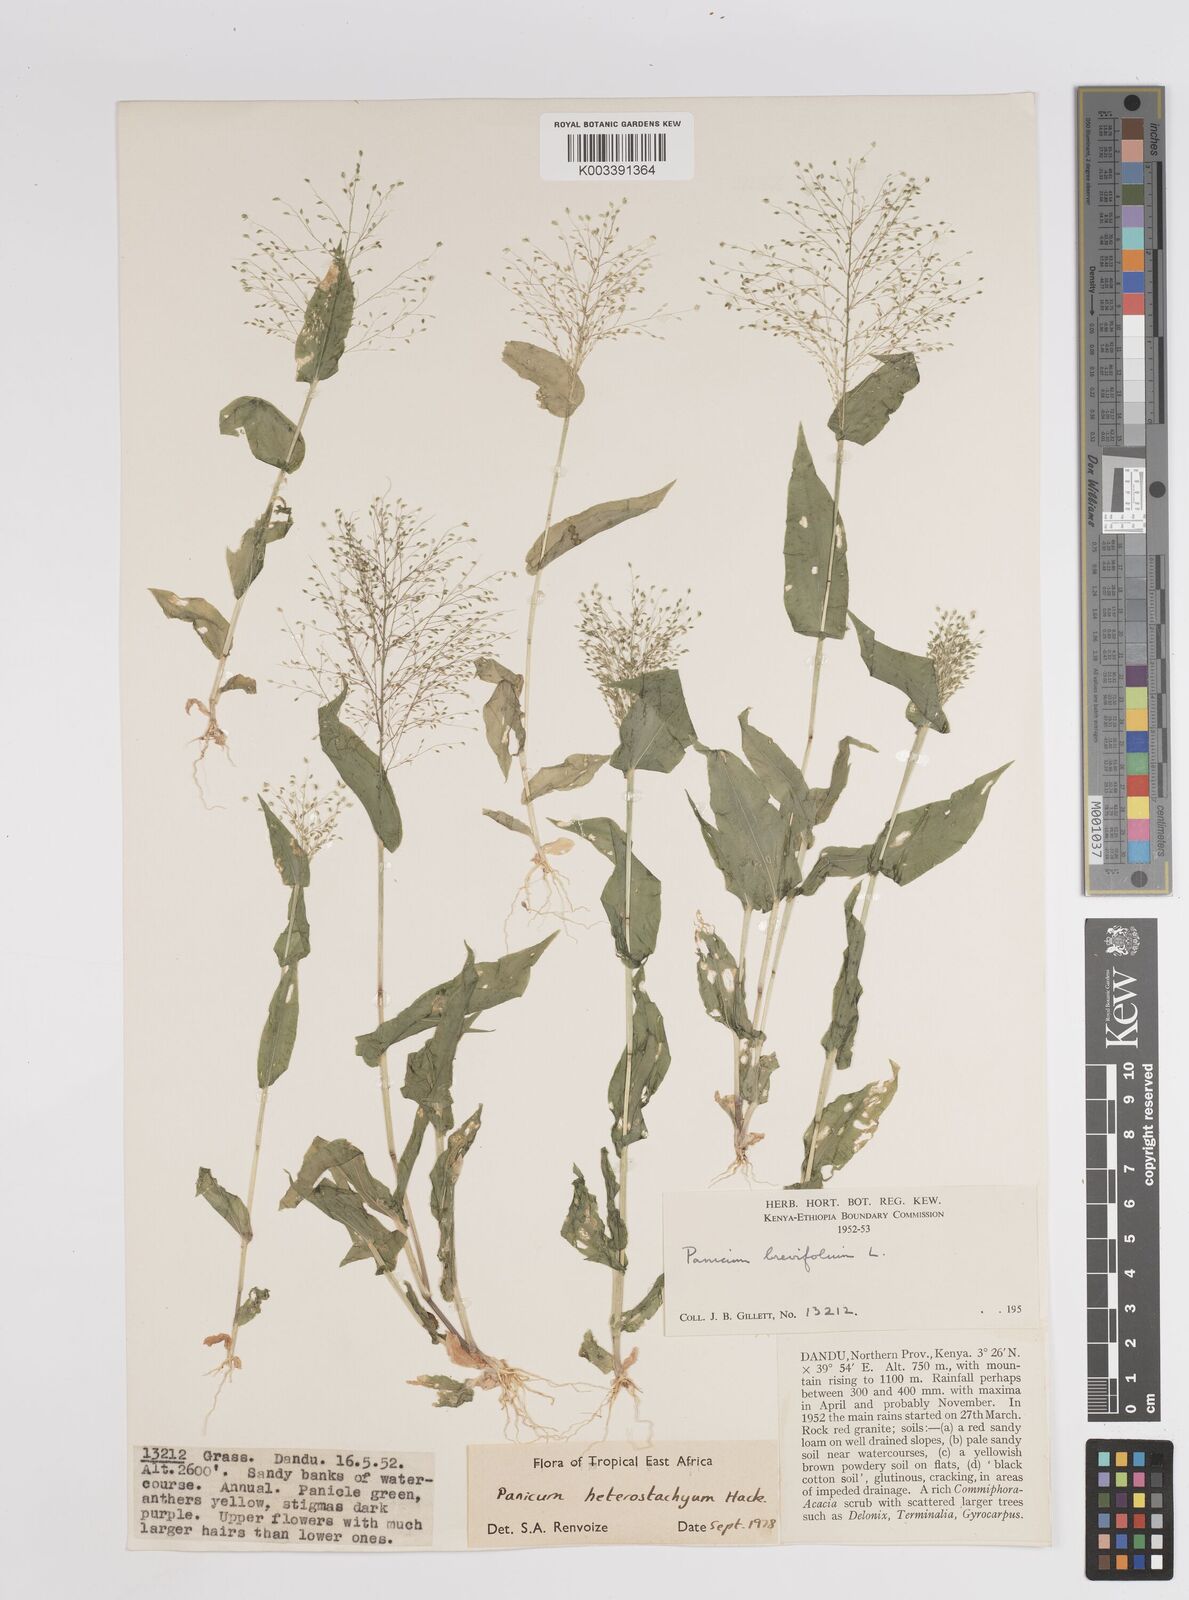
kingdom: Plantae
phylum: Tracheophyta
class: Liliopsida
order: Poales
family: Poaceae
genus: Panicum
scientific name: Panicum hirtum
